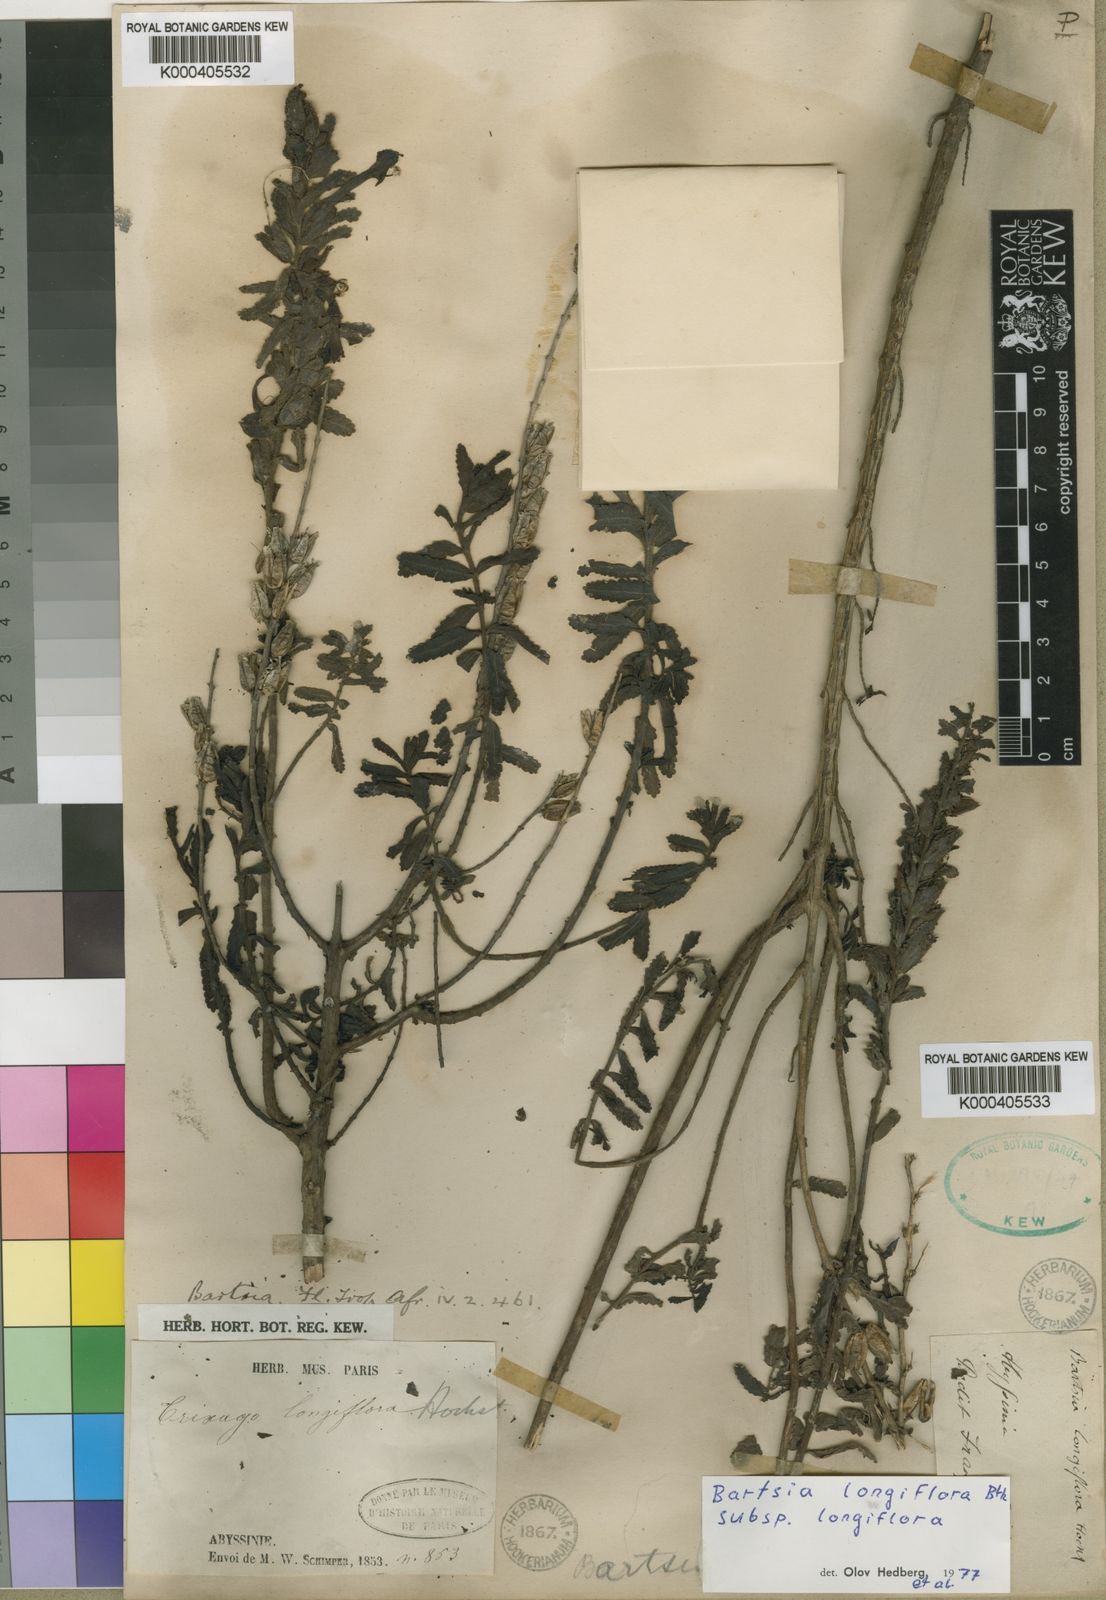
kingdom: Plantae
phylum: Tracheophyta
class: Magnoliopsida
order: Lamiales
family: Orobanchaceae
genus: Hedbergia
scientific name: Hedbergia longiflora
